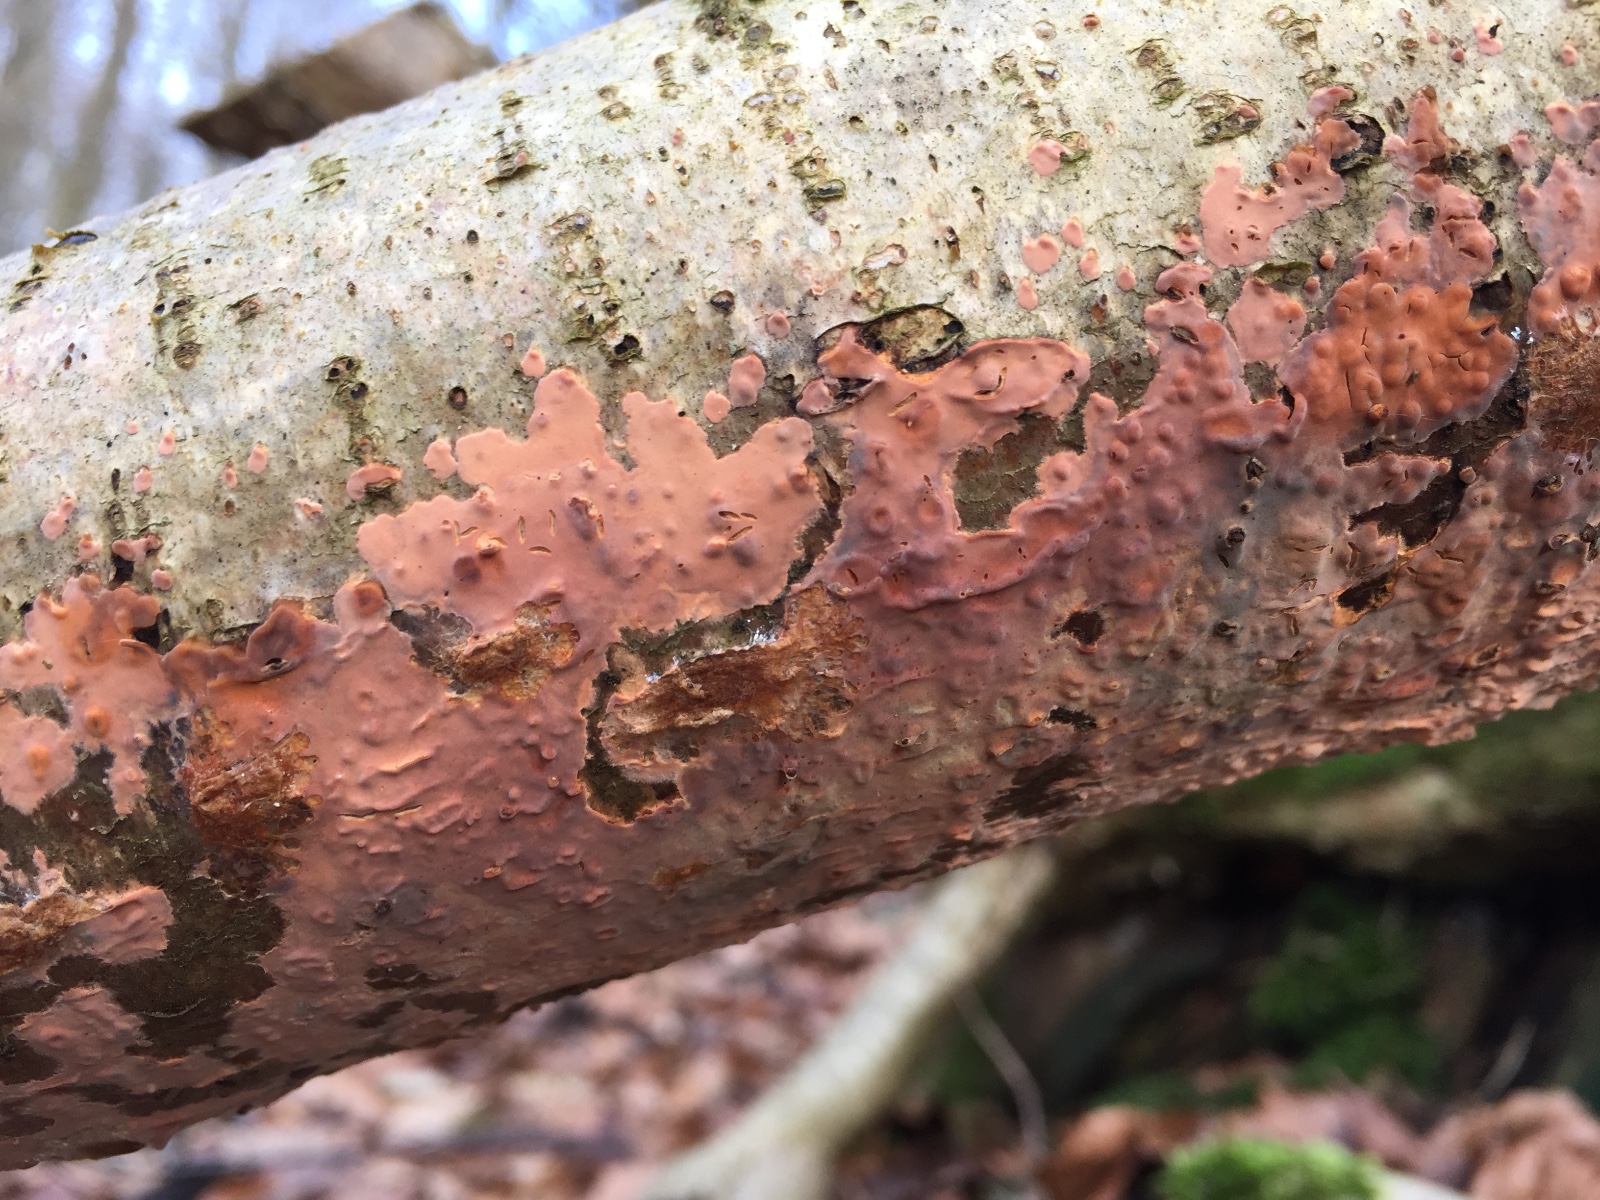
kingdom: Fungi
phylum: Basidiomycota
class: Agaricomycetes
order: Russulales
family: Peniophoraceae
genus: Peniophora
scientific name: Peniophora incarnata
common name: laksefarvet voksskind
